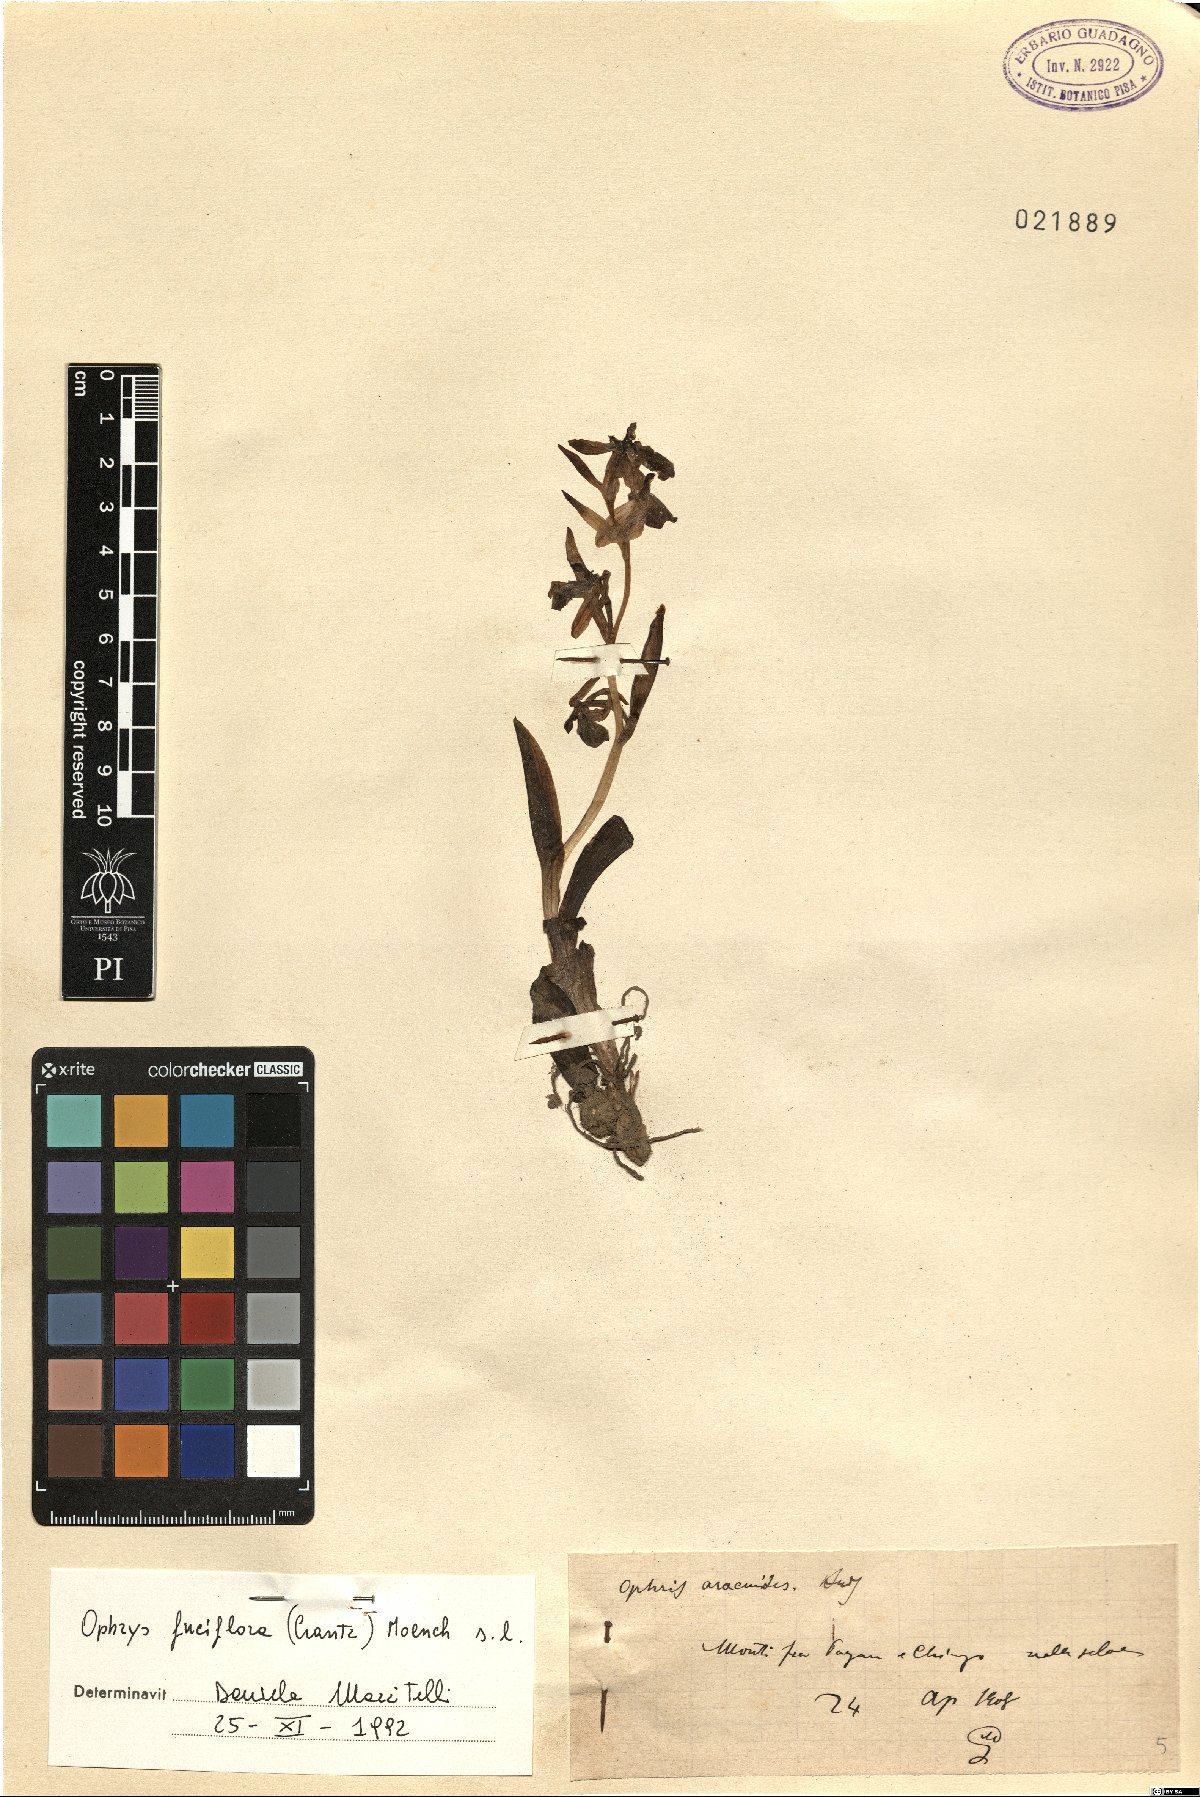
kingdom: Plantae
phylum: Tracheophyta
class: Liliopsida
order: Asparagales
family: Orchidaceae
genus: Ophrys
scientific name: Ophrys holosericea
